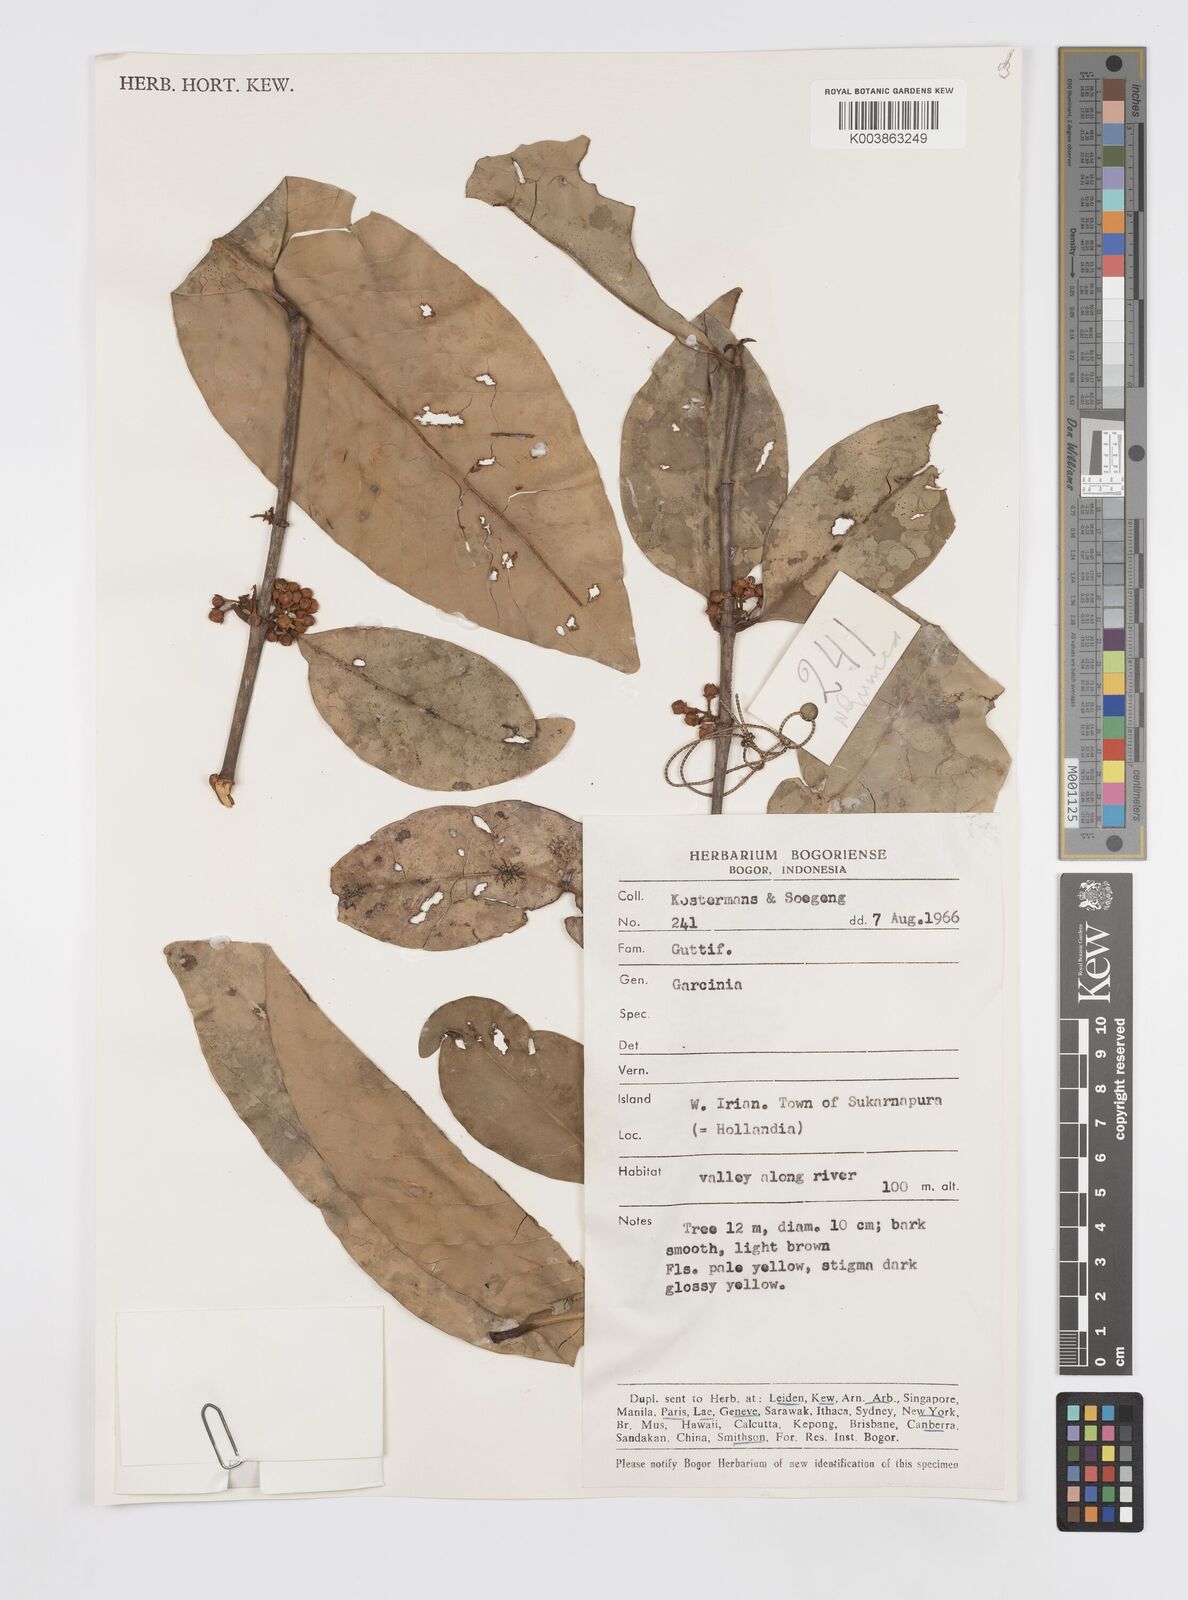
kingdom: Plantae
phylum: Tracheophyta
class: Magnoliopsida
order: Malpighiales
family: Clusiaceae
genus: Garcinia
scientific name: Garcinia
